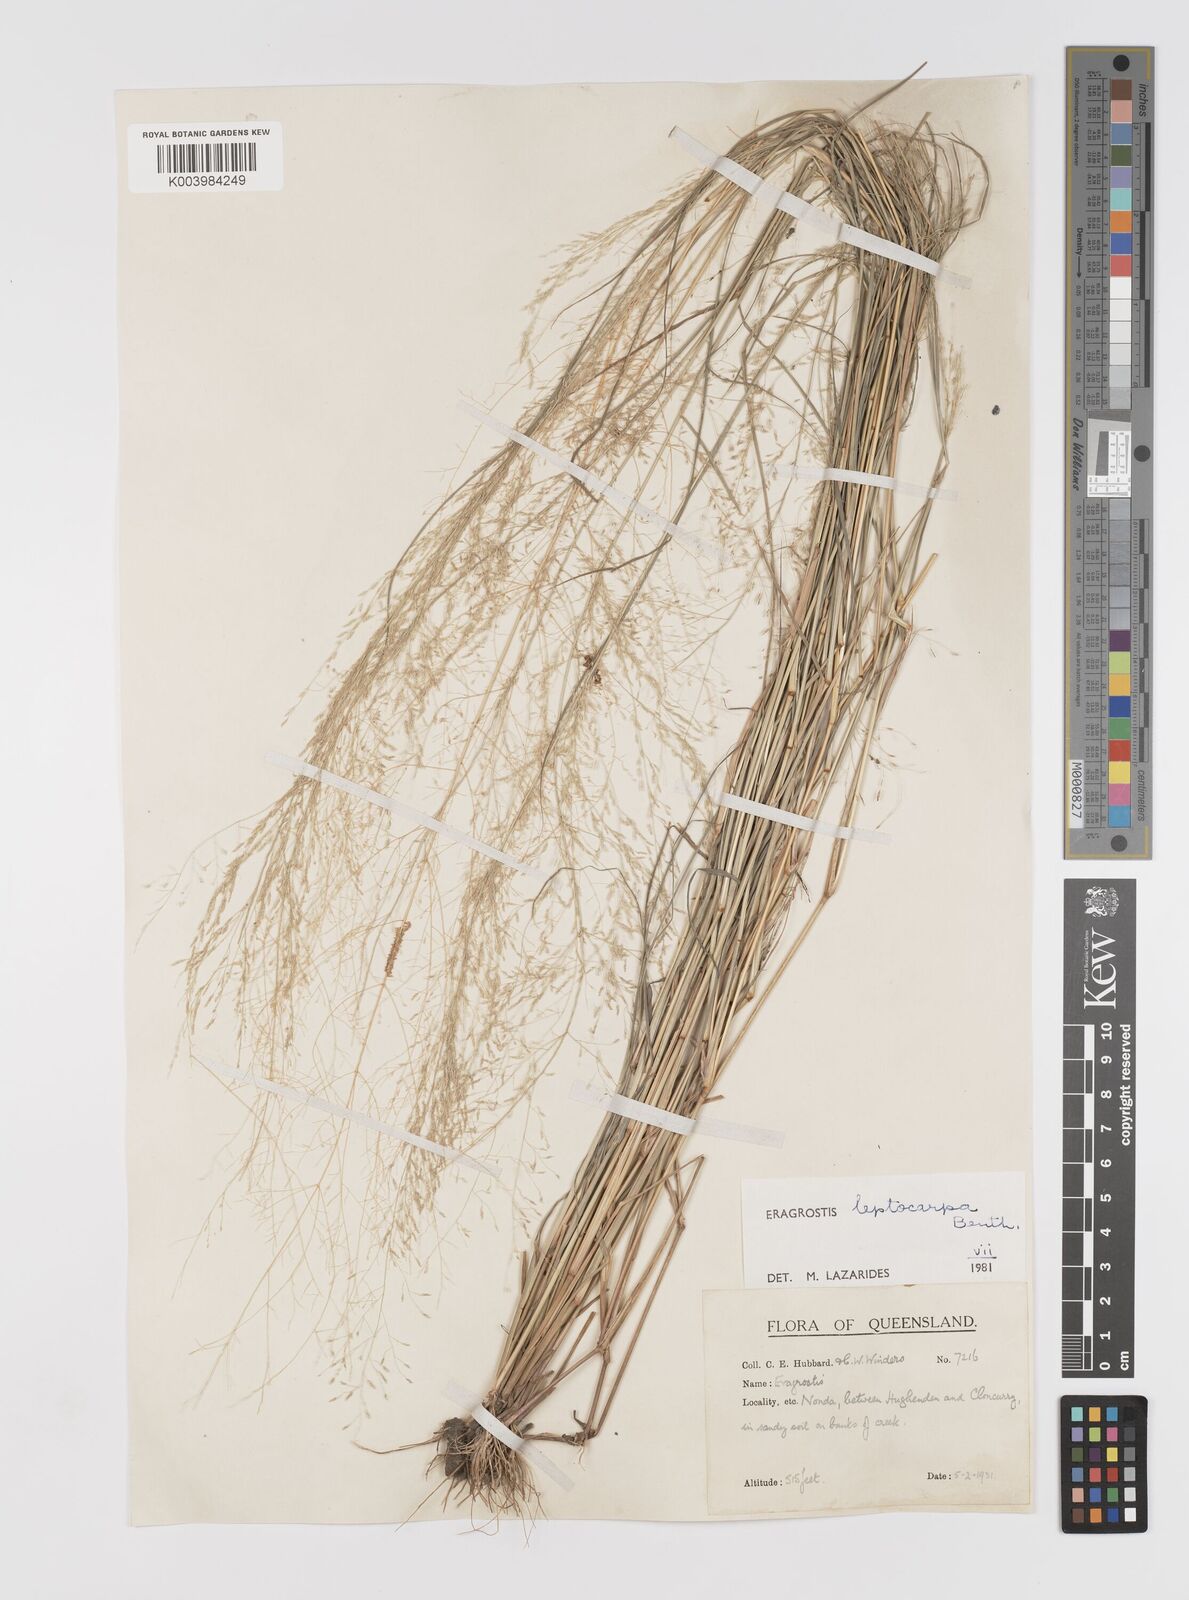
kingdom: Plantae
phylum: Tracheophyta
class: Liliopsida
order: Poales
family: Poaceae
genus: Eragrostis
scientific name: Eragrostis leptocarpa
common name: Drooping love grass
